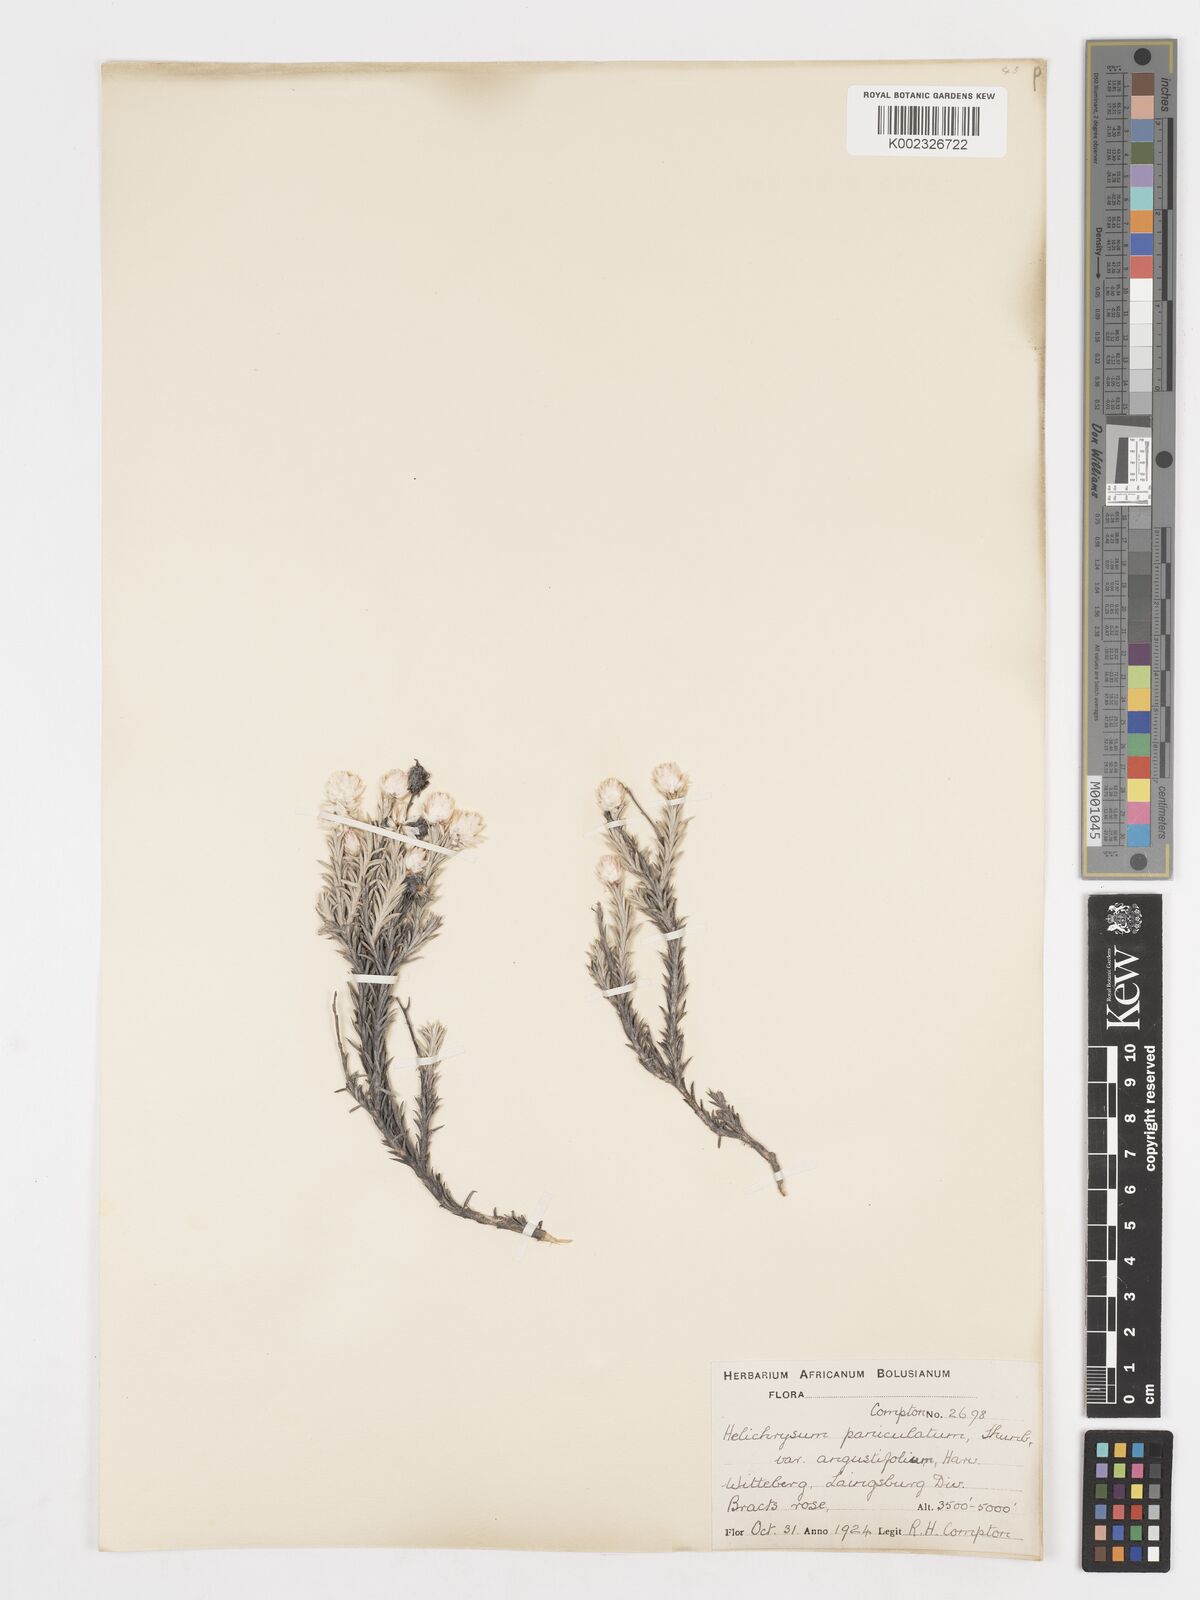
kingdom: Plantae
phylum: Tracheophyta
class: Magnoliopsida
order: Asterales
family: Asteraceae
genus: Achyranthemum
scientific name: Achyranthemum paniculatum
